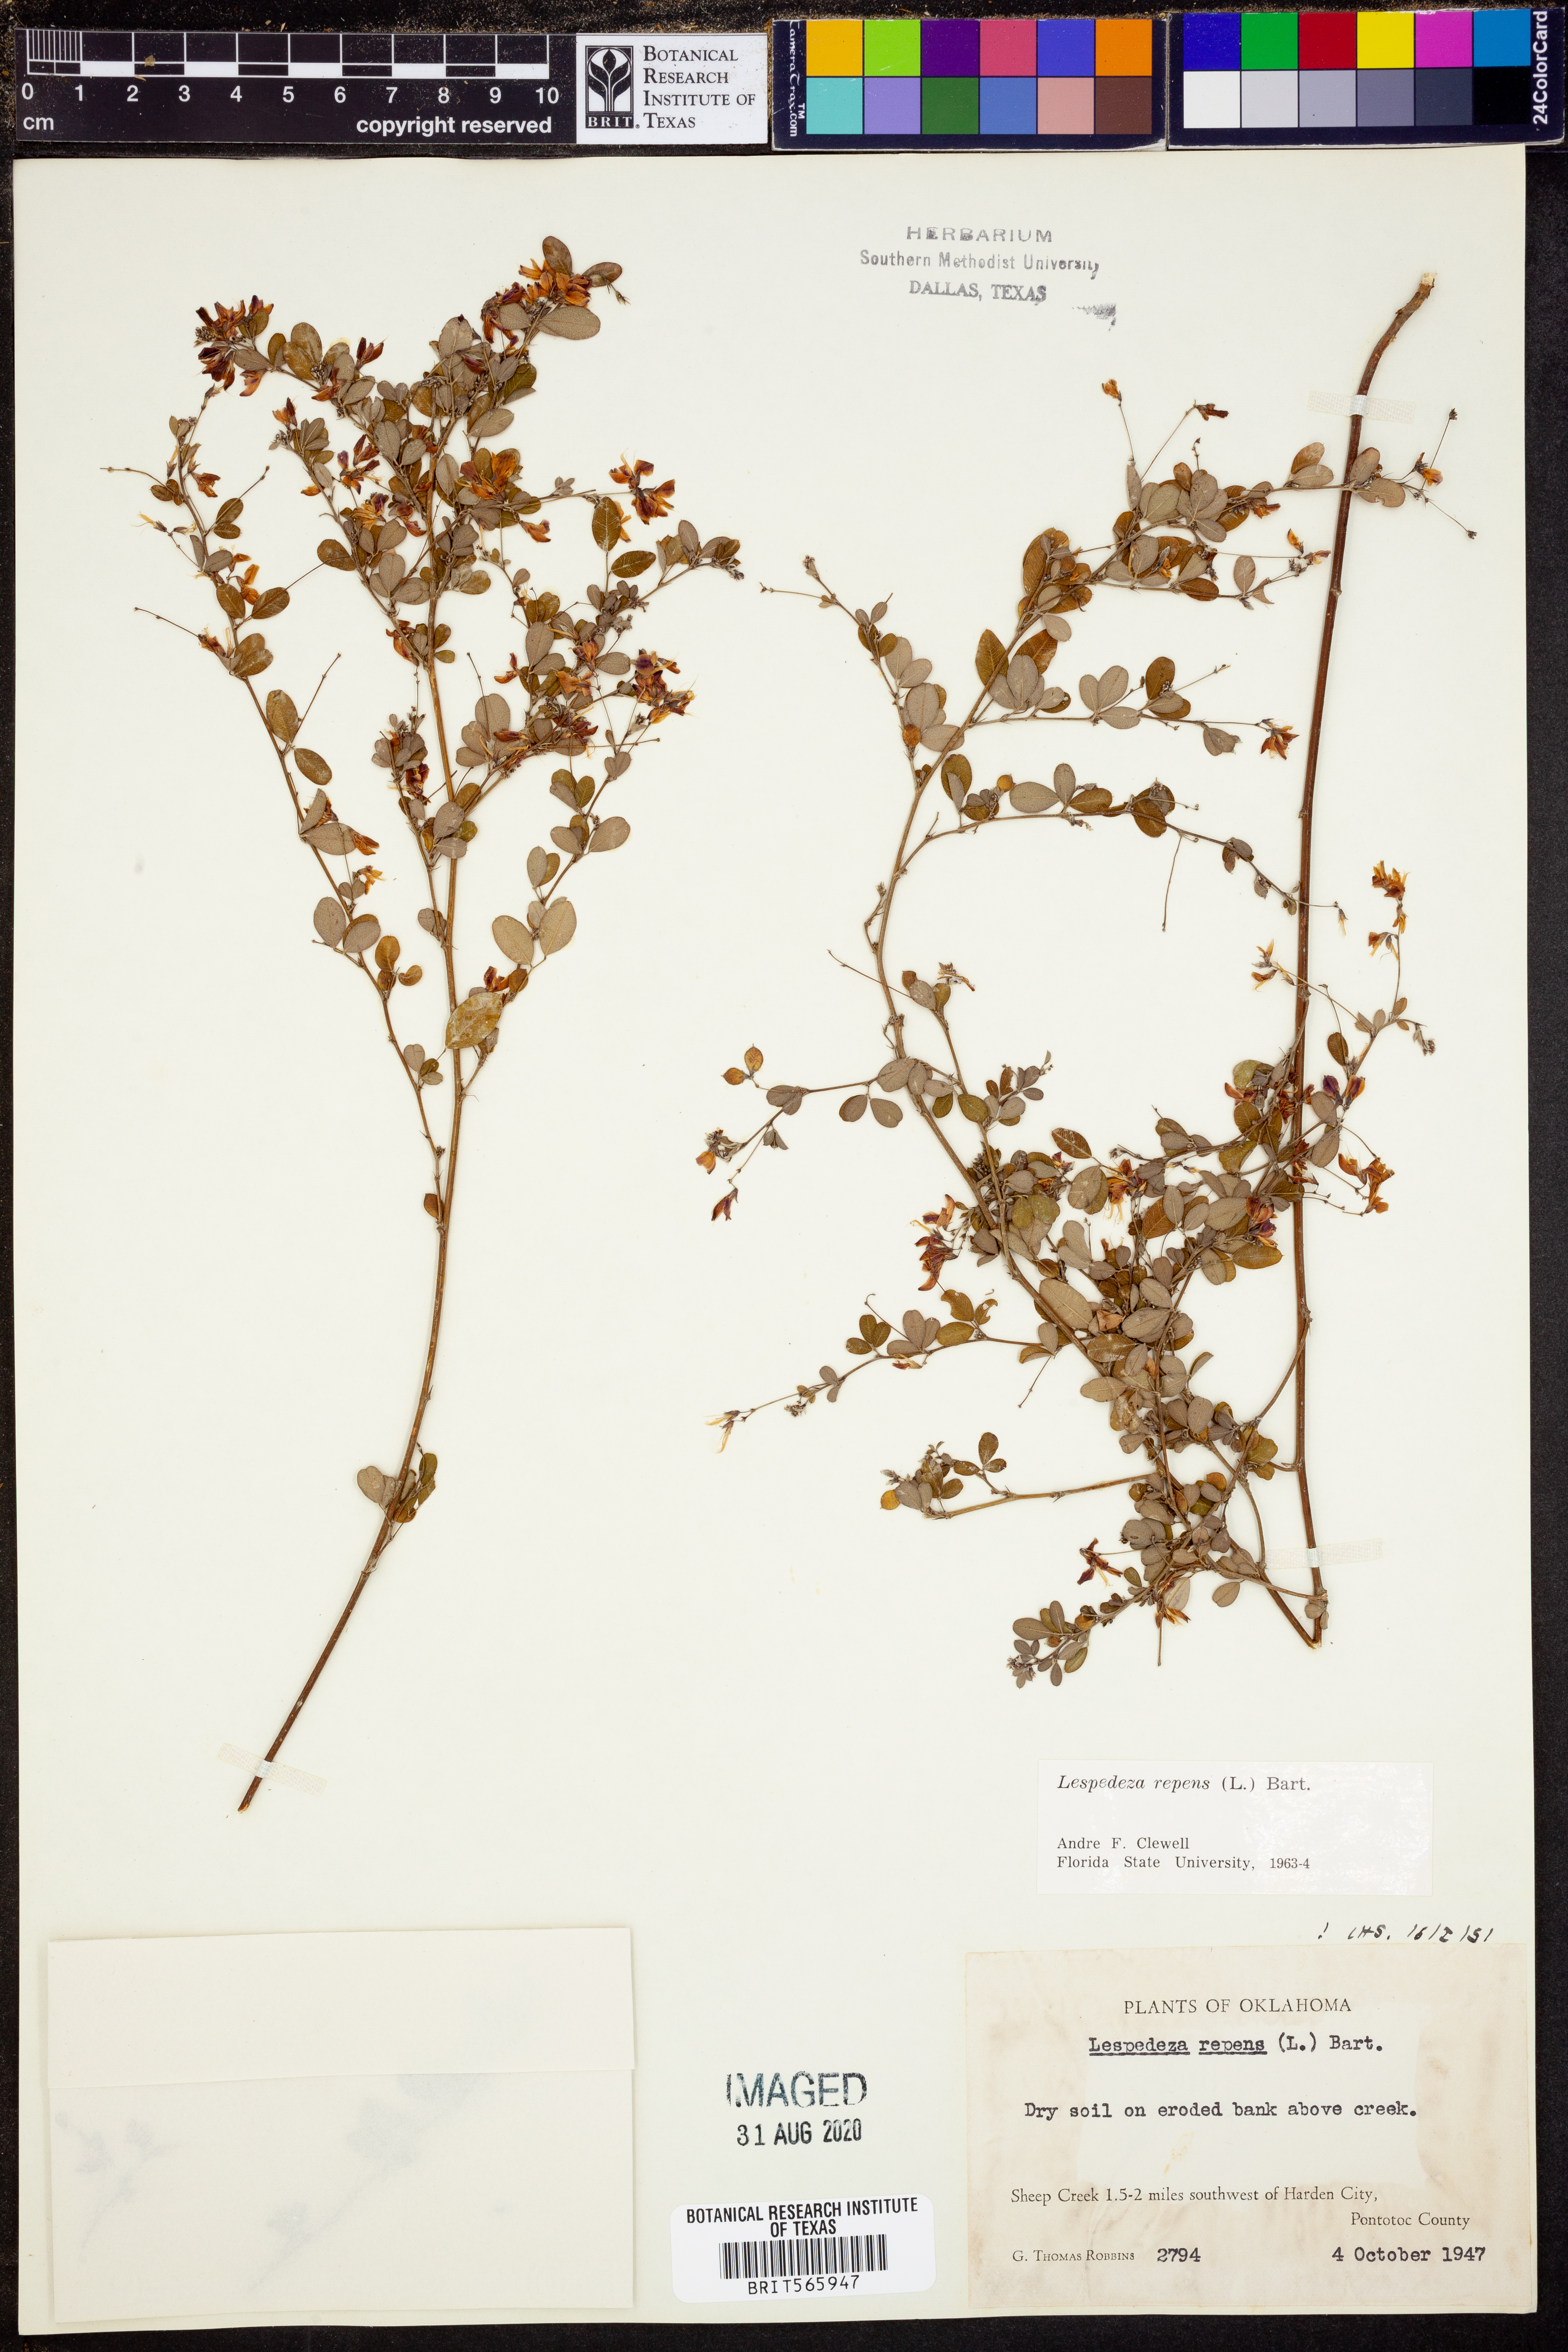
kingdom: Plantae
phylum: Tracheophyta
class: Magnoliopsida
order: Fabales
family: Fabaceae
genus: Lespedeza
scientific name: Lespedeza repens
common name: Creeping bush-clover
